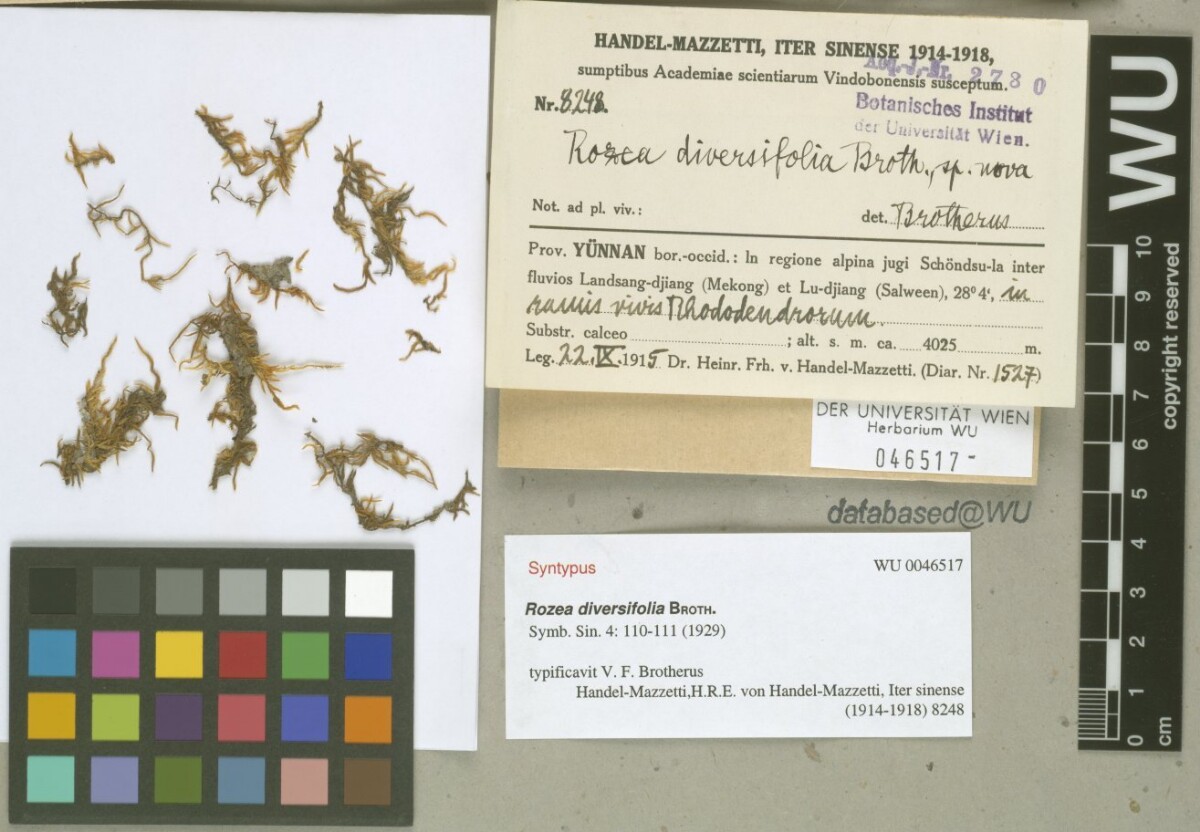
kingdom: Plantae
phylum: Bryophyta
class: Bryopsida
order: Hypnales
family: Leskeaceae
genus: Rozea
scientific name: Rozea diversifolia
